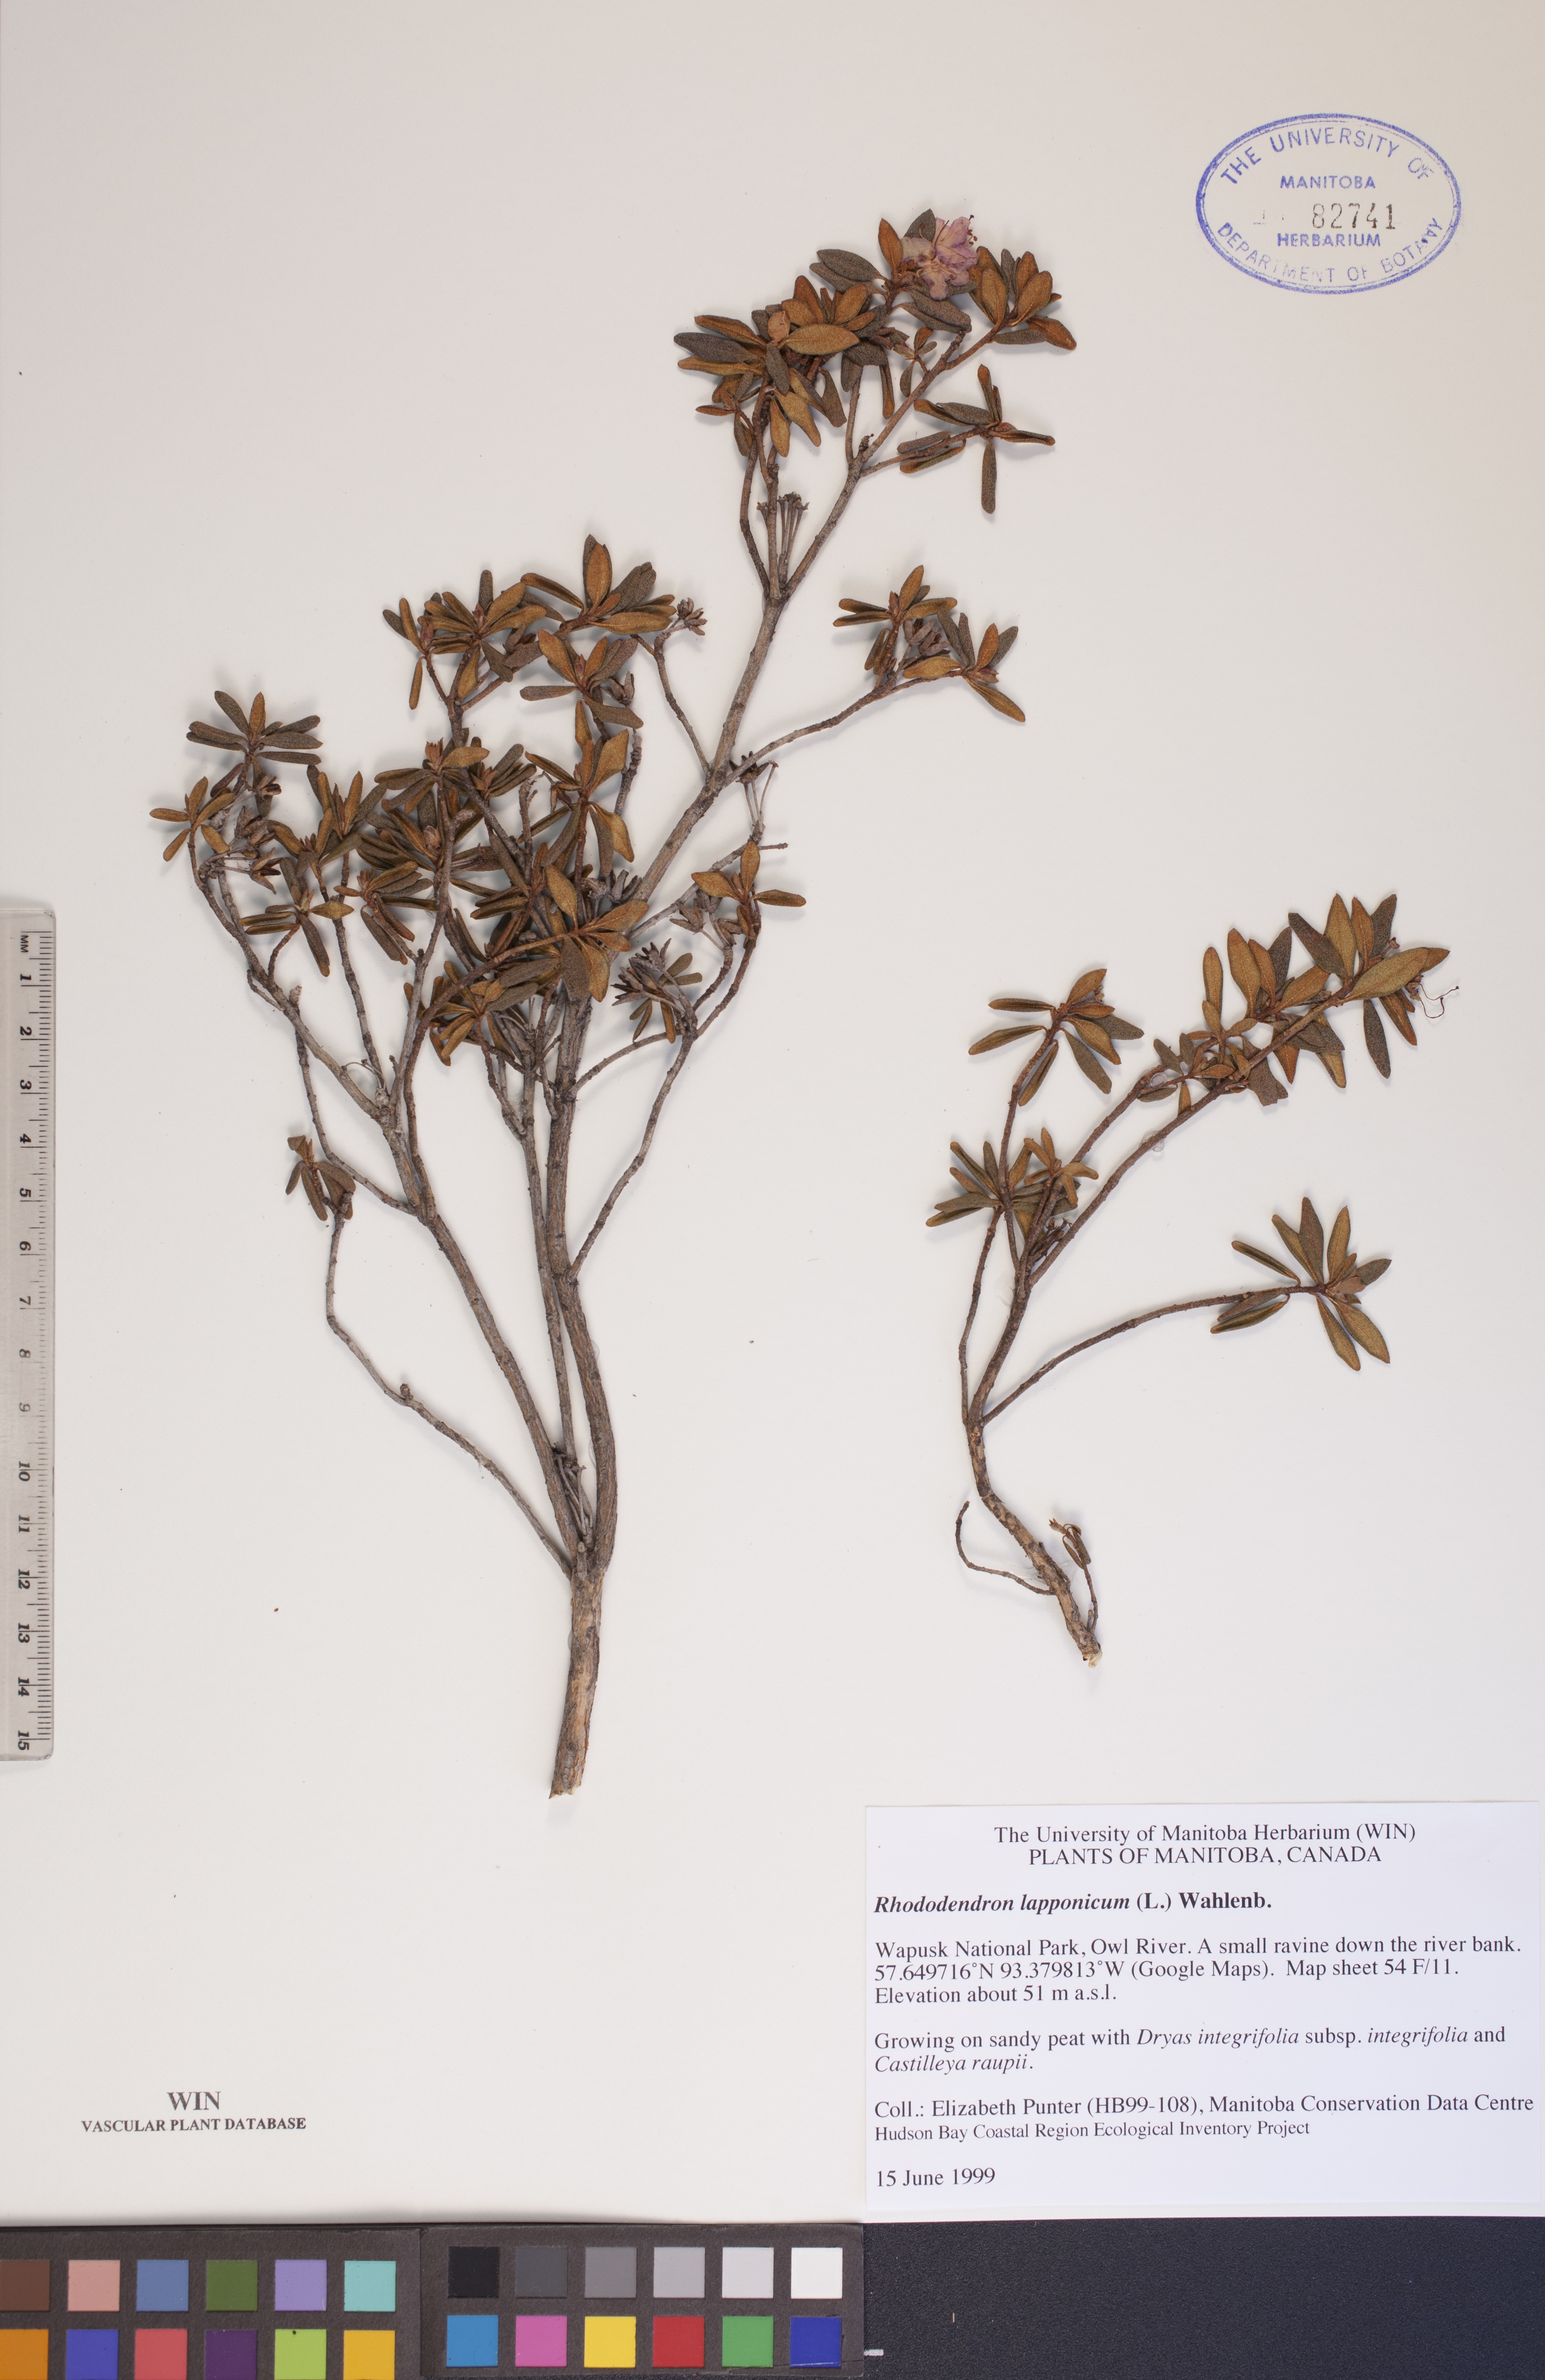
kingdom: Plantae
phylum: Tracheophyta
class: Magnoliopsida
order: Ericales
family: Ericaceae
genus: Rhododendron
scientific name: Rhododendron lapponicum
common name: Lapland rhododendron
